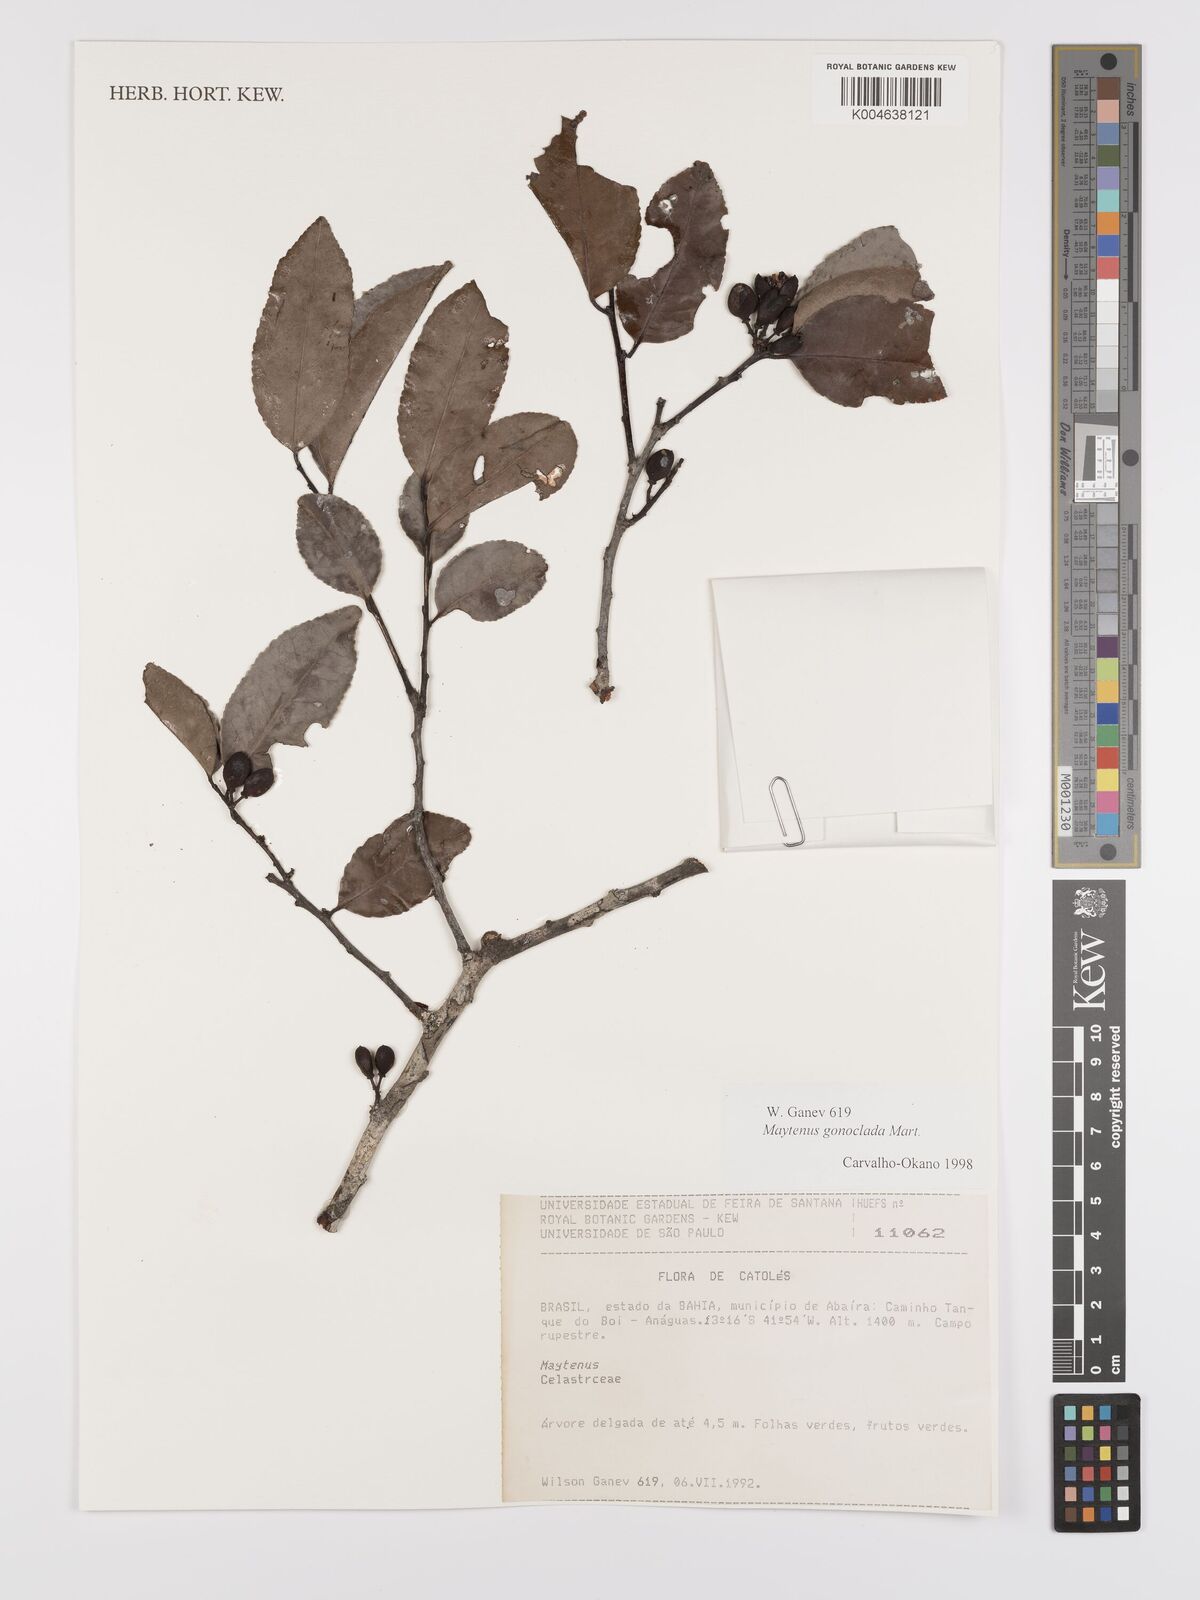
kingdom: Plantae
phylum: Tracheophyta
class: Magnoliopsida
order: Celastrales
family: Celastraceae
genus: Monteverdia
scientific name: Monteverdia gonoclada
